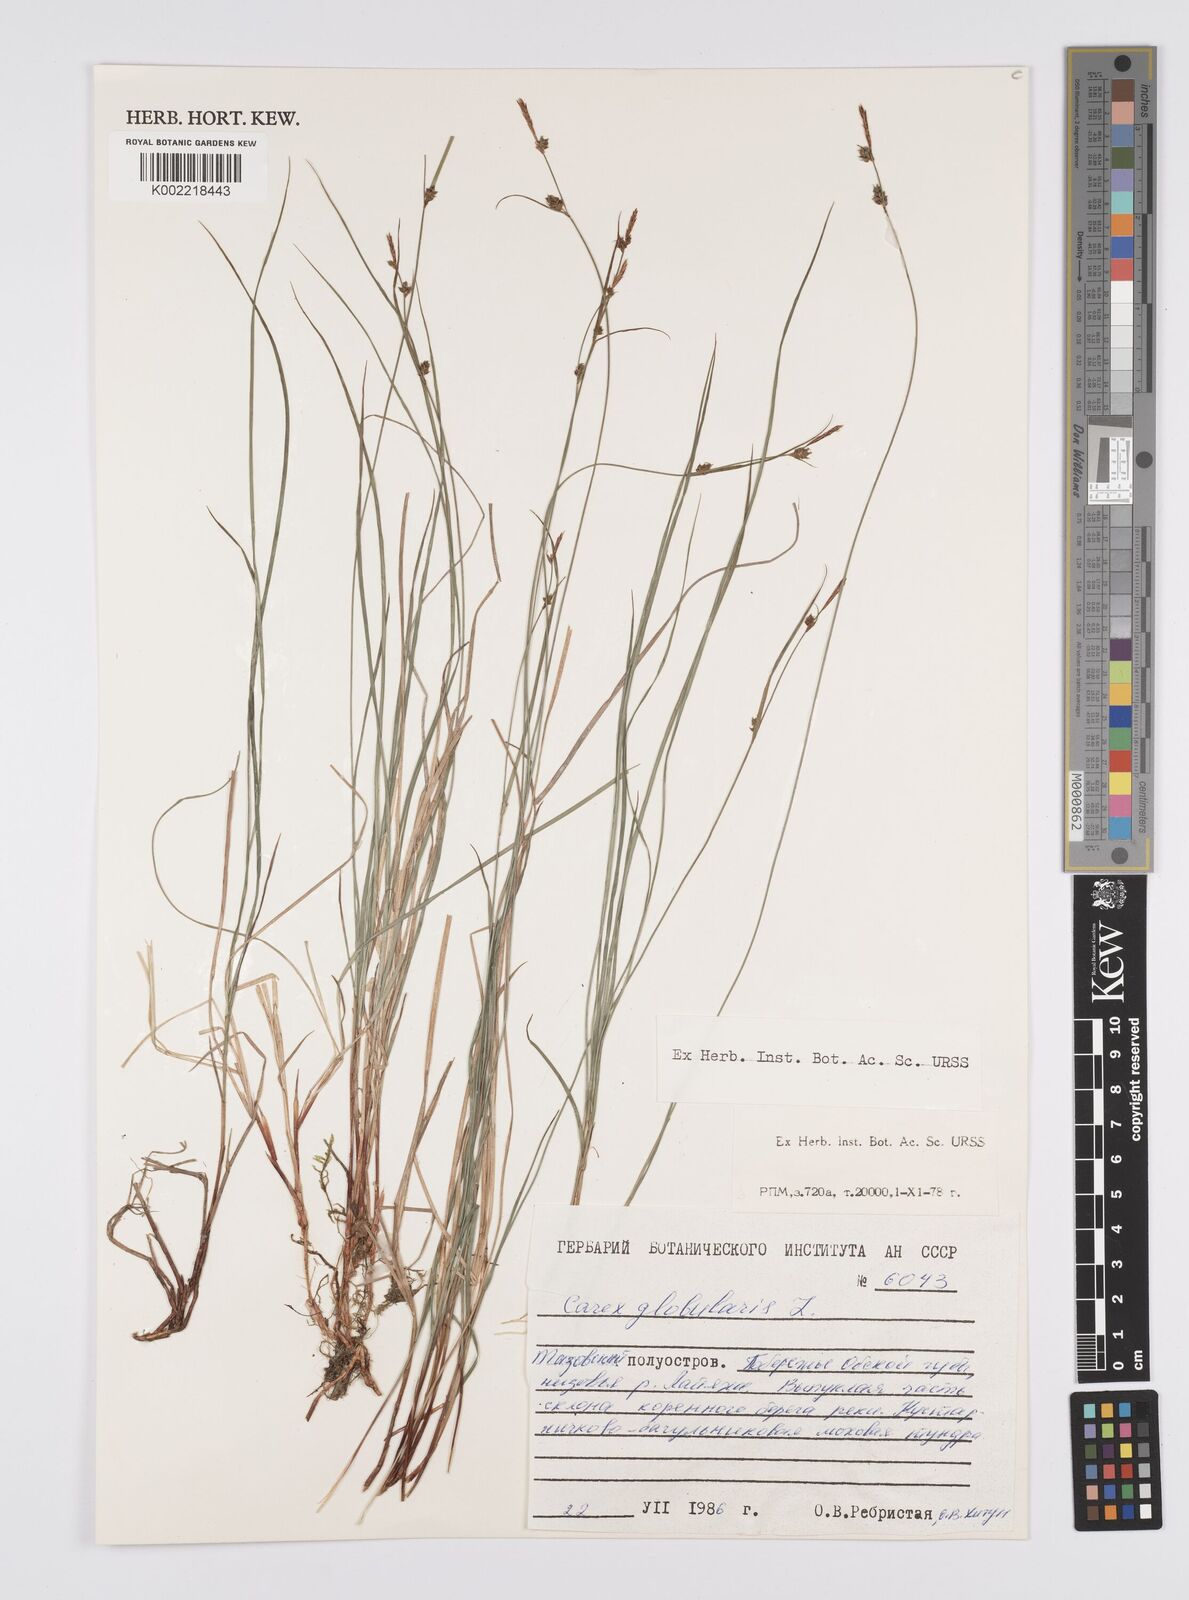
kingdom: Plantae
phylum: Tracheophyta
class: Liliopsida
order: Poales
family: Cyperaceae
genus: Carex
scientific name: Carex globularis
